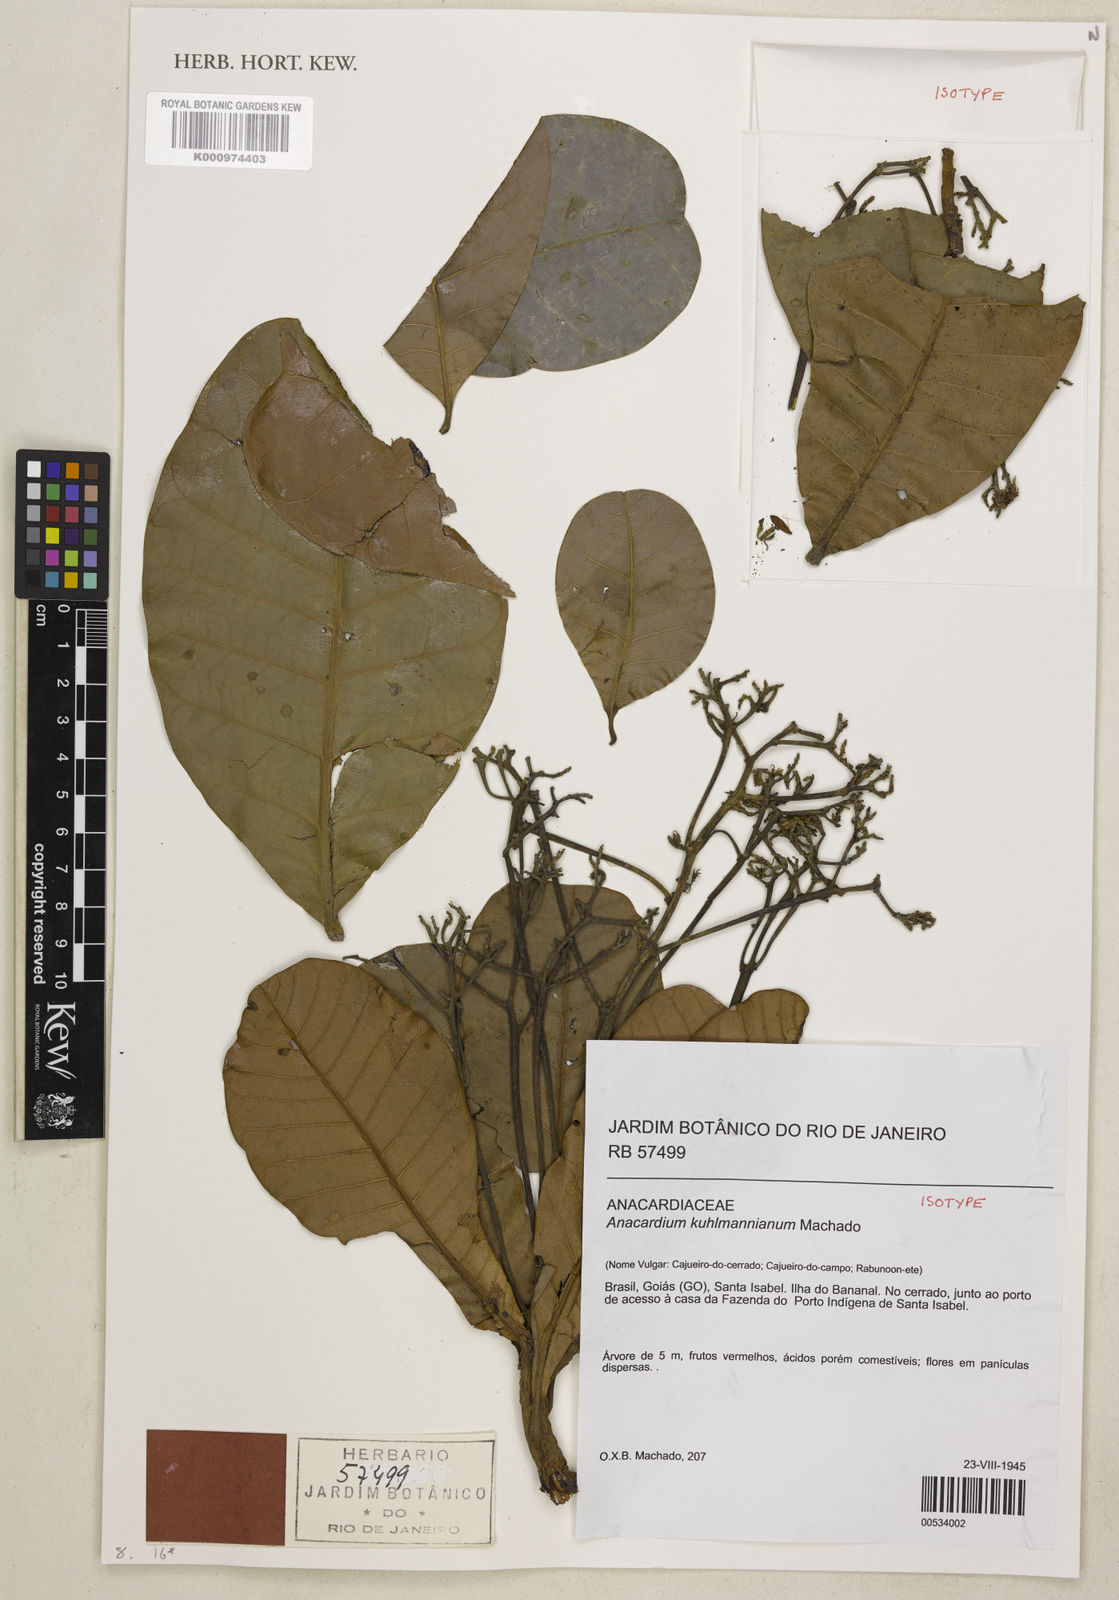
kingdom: Plantae
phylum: Tracheophyta
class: Magnoliopsida
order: Sapindales
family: Anacardiaceae
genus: Anacardium
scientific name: Anacardium occidentale
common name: Cashew
